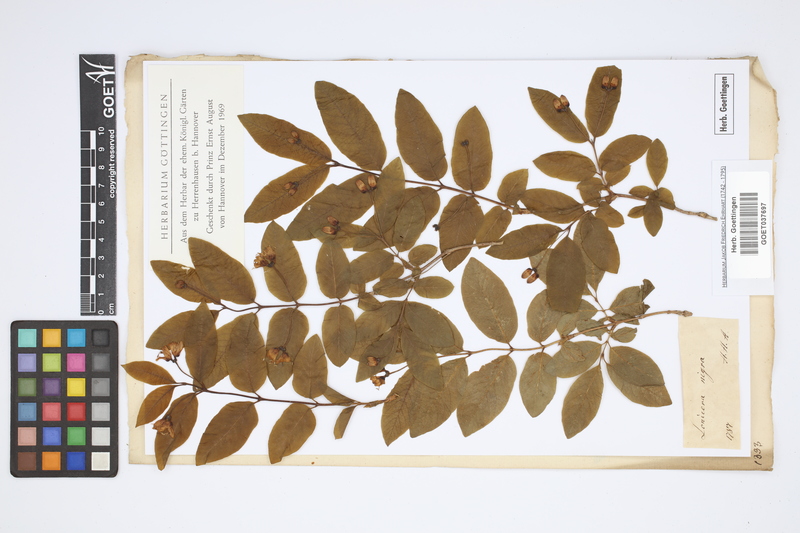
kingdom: Plantae
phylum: Tracheophyta
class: Magnoliopsida
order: Dipsacales
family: Caprifoliaceae
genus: Lonicera
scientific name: Lonicera nigra
